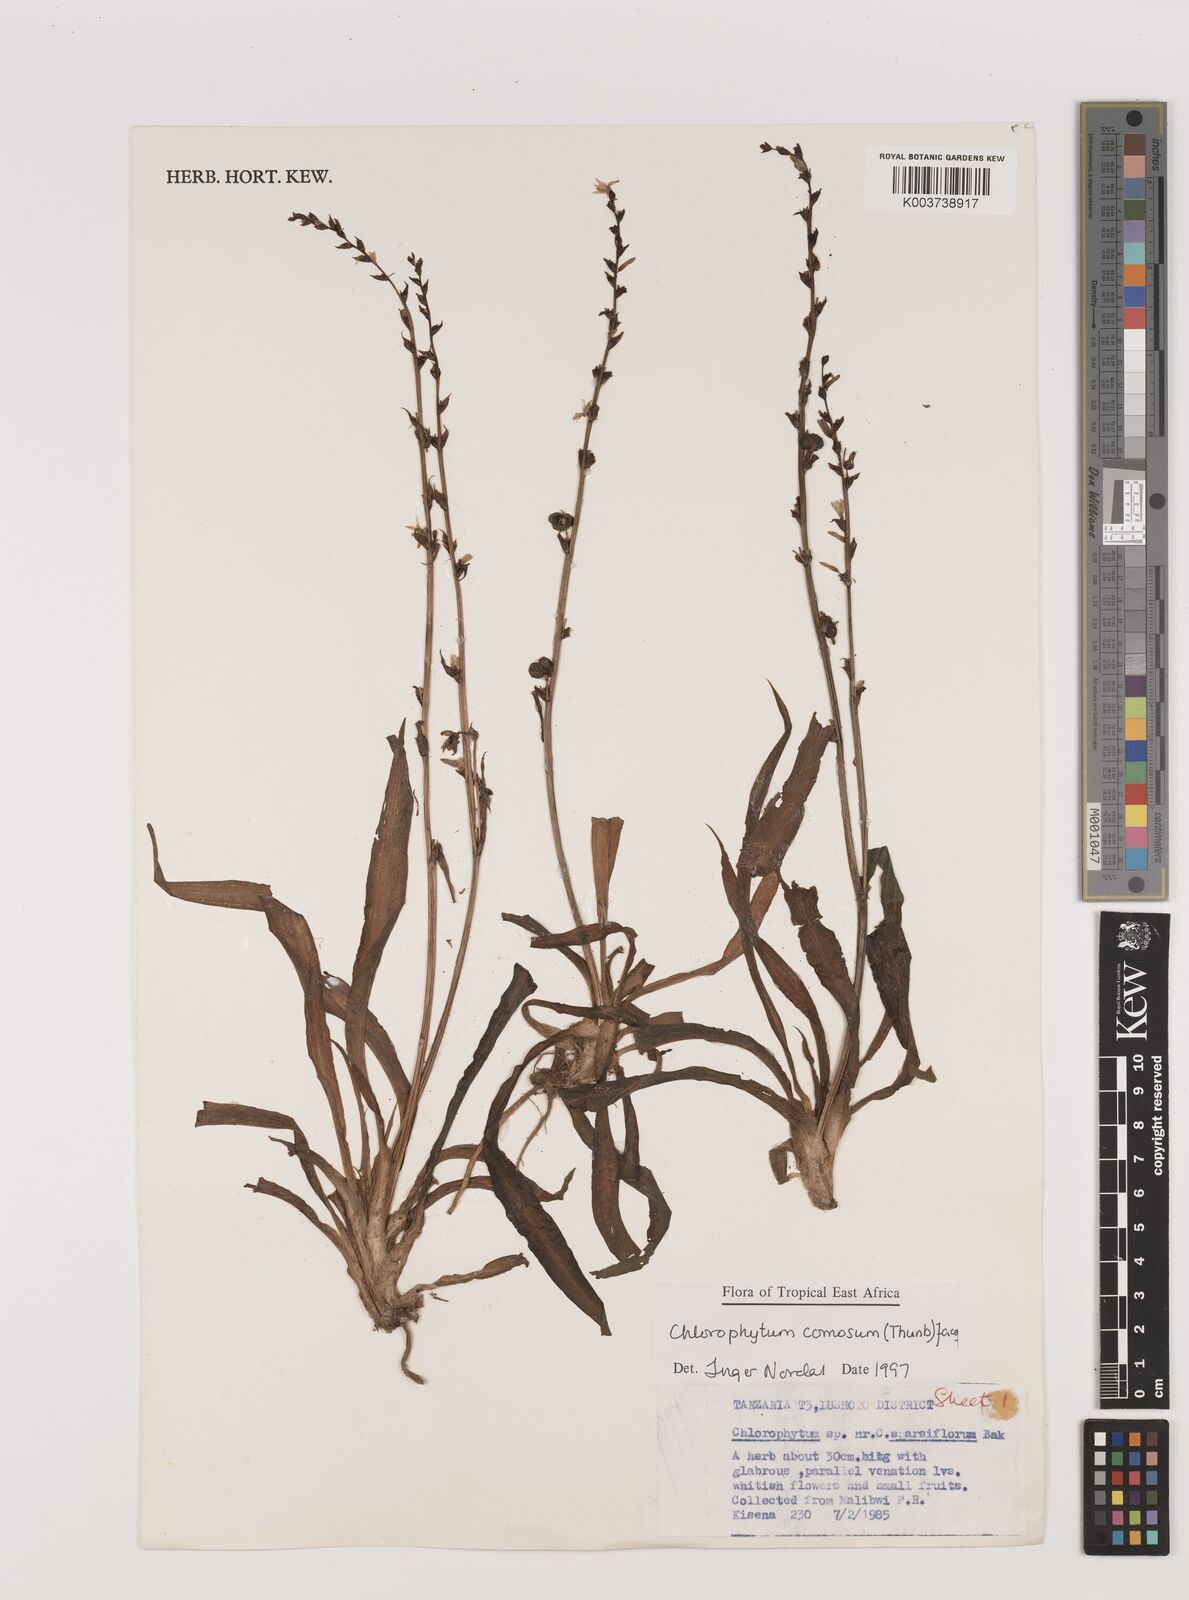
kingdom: Plantae
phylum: Tracheophyta
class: Liliopsida
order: Asparagales
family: Asparagaceae
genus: Chlorophytum
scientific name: Chlorophytum comosum
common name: Spider plant
